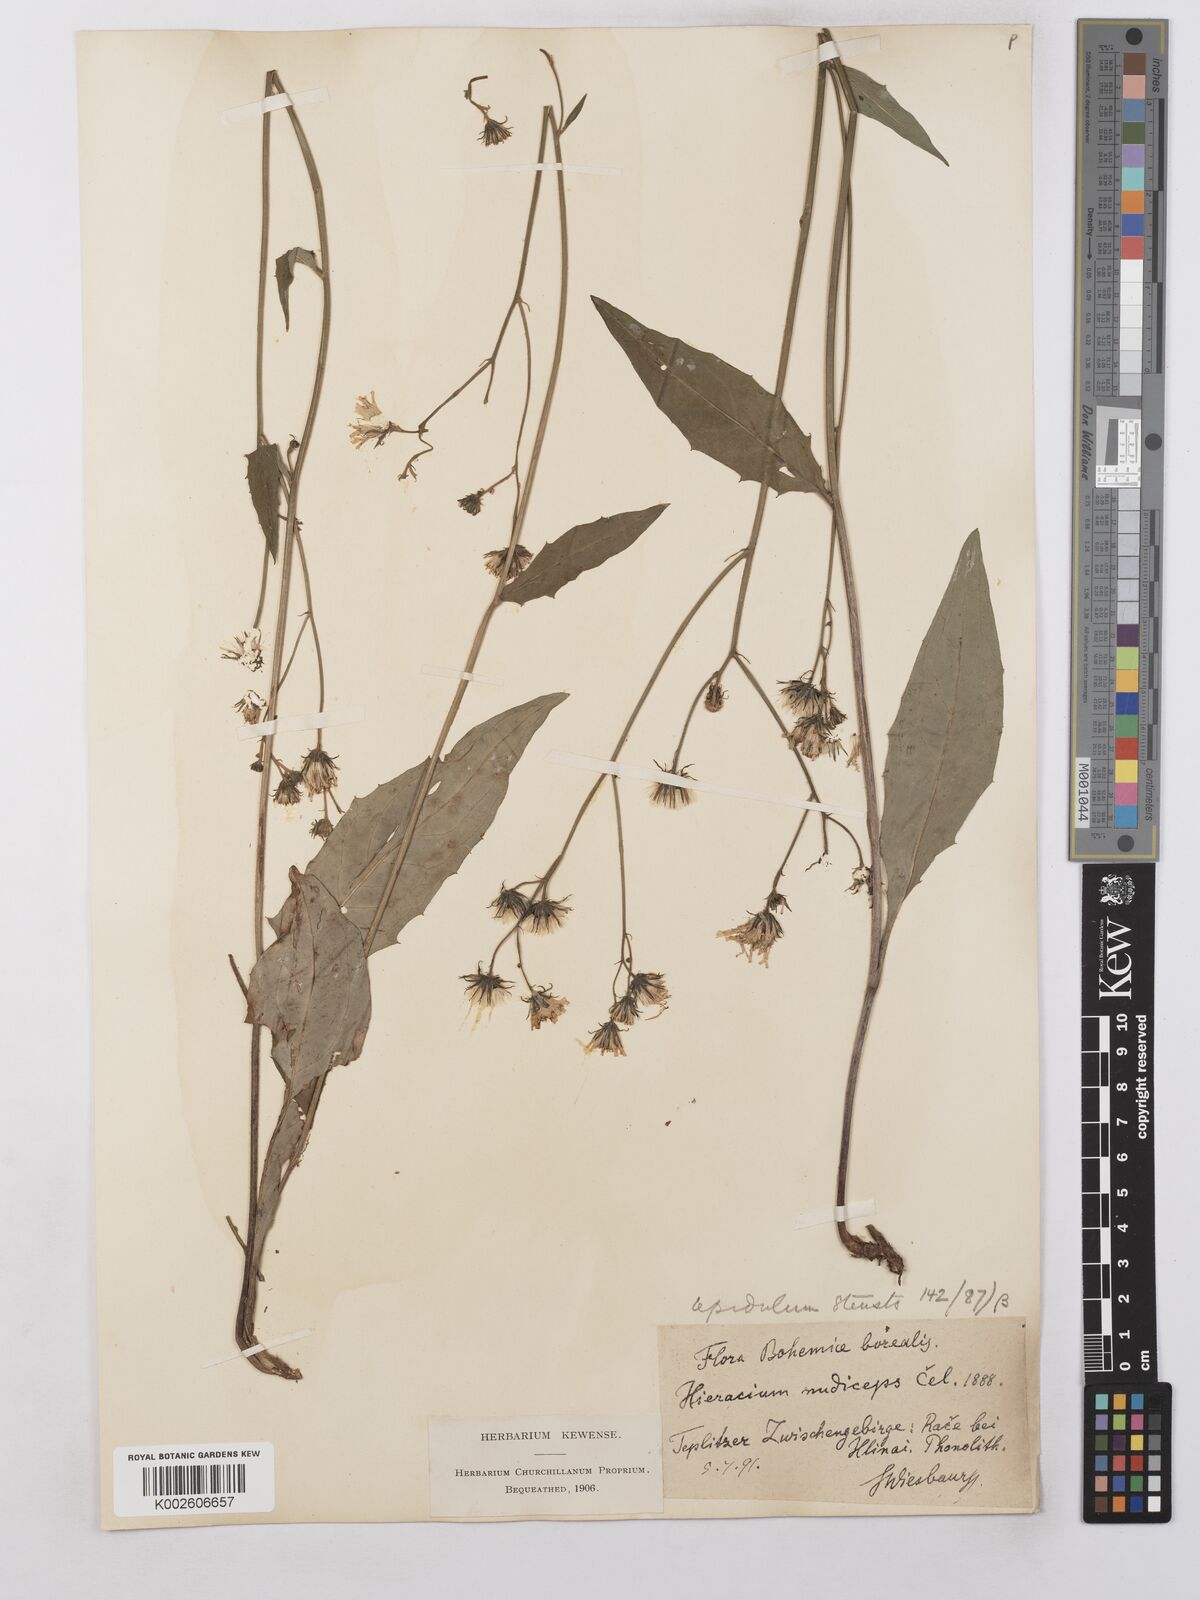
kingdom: Plantae
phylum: Tracheophyta
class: Magnoliopsida
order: Asterales
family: Asteraceae
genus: Hieracium
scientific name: Hieracium lachenalii
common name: Common hawkweed
